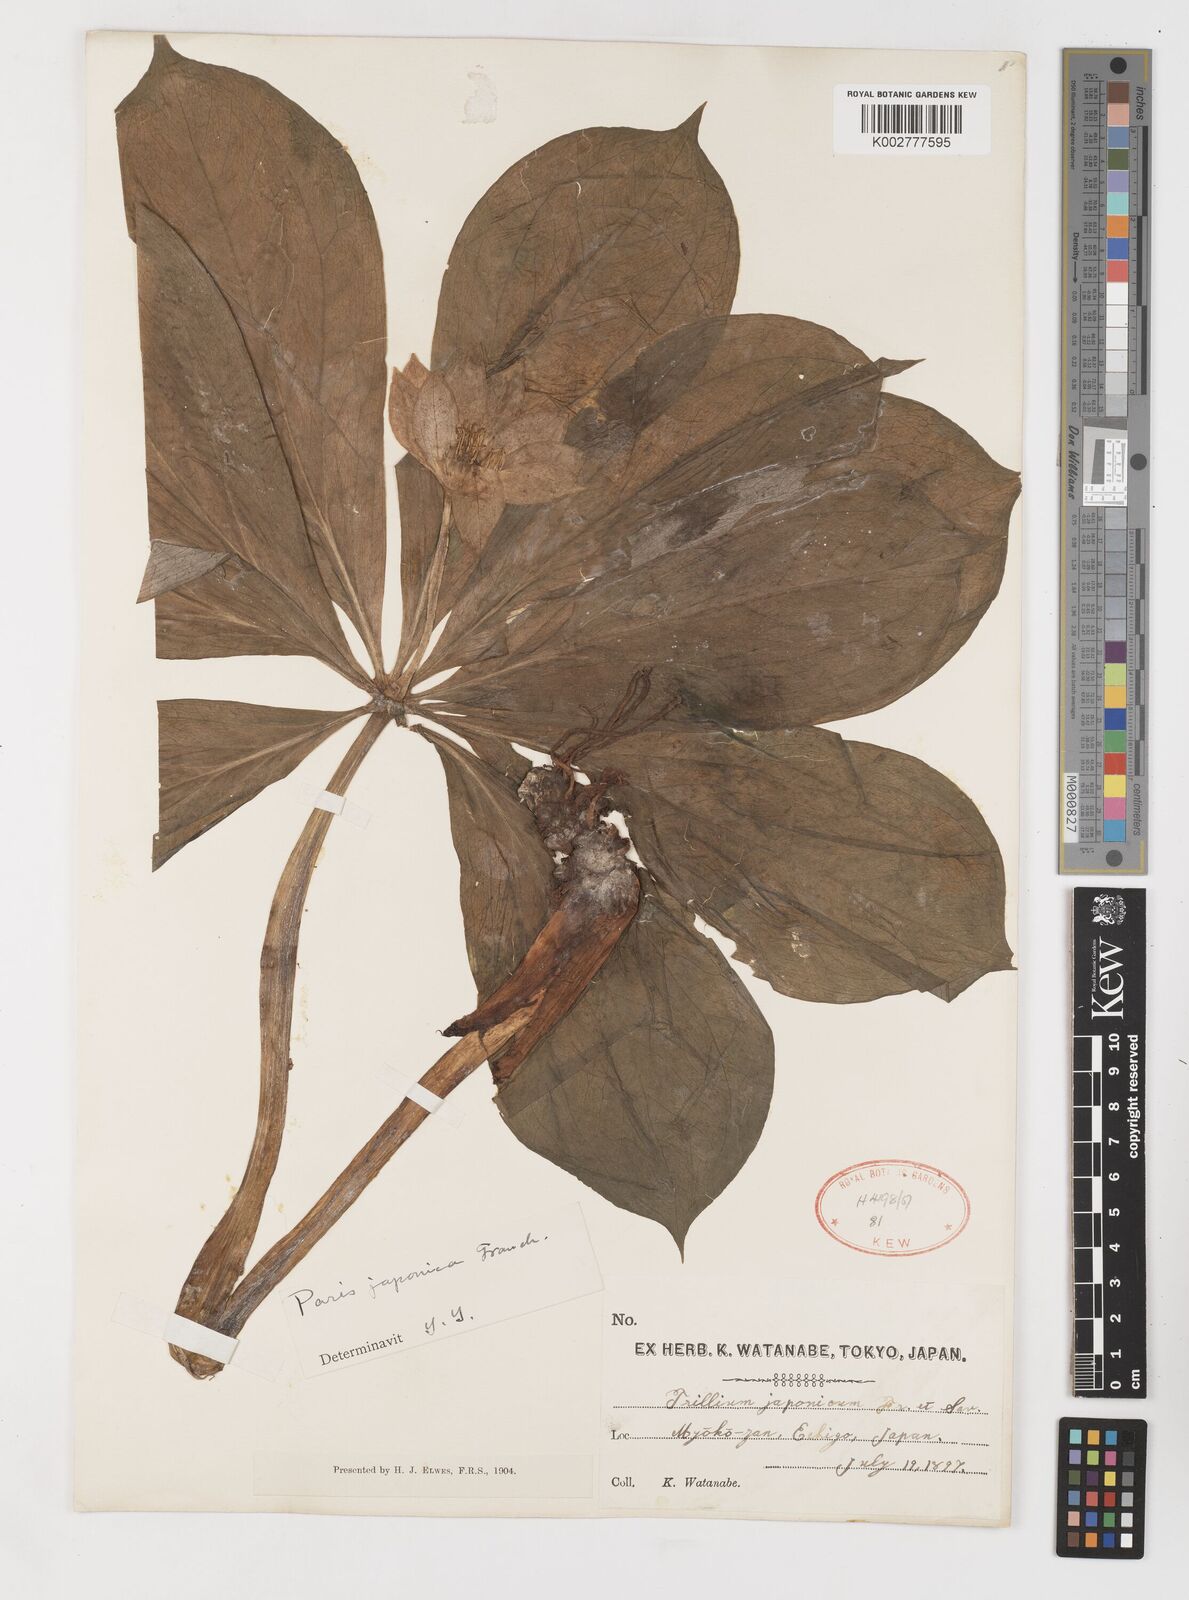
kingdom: Plantae
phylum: Tracheophyta
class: Liliopsida
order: Liliales
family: Melanthiaceae
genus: Paris
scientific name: Paris
